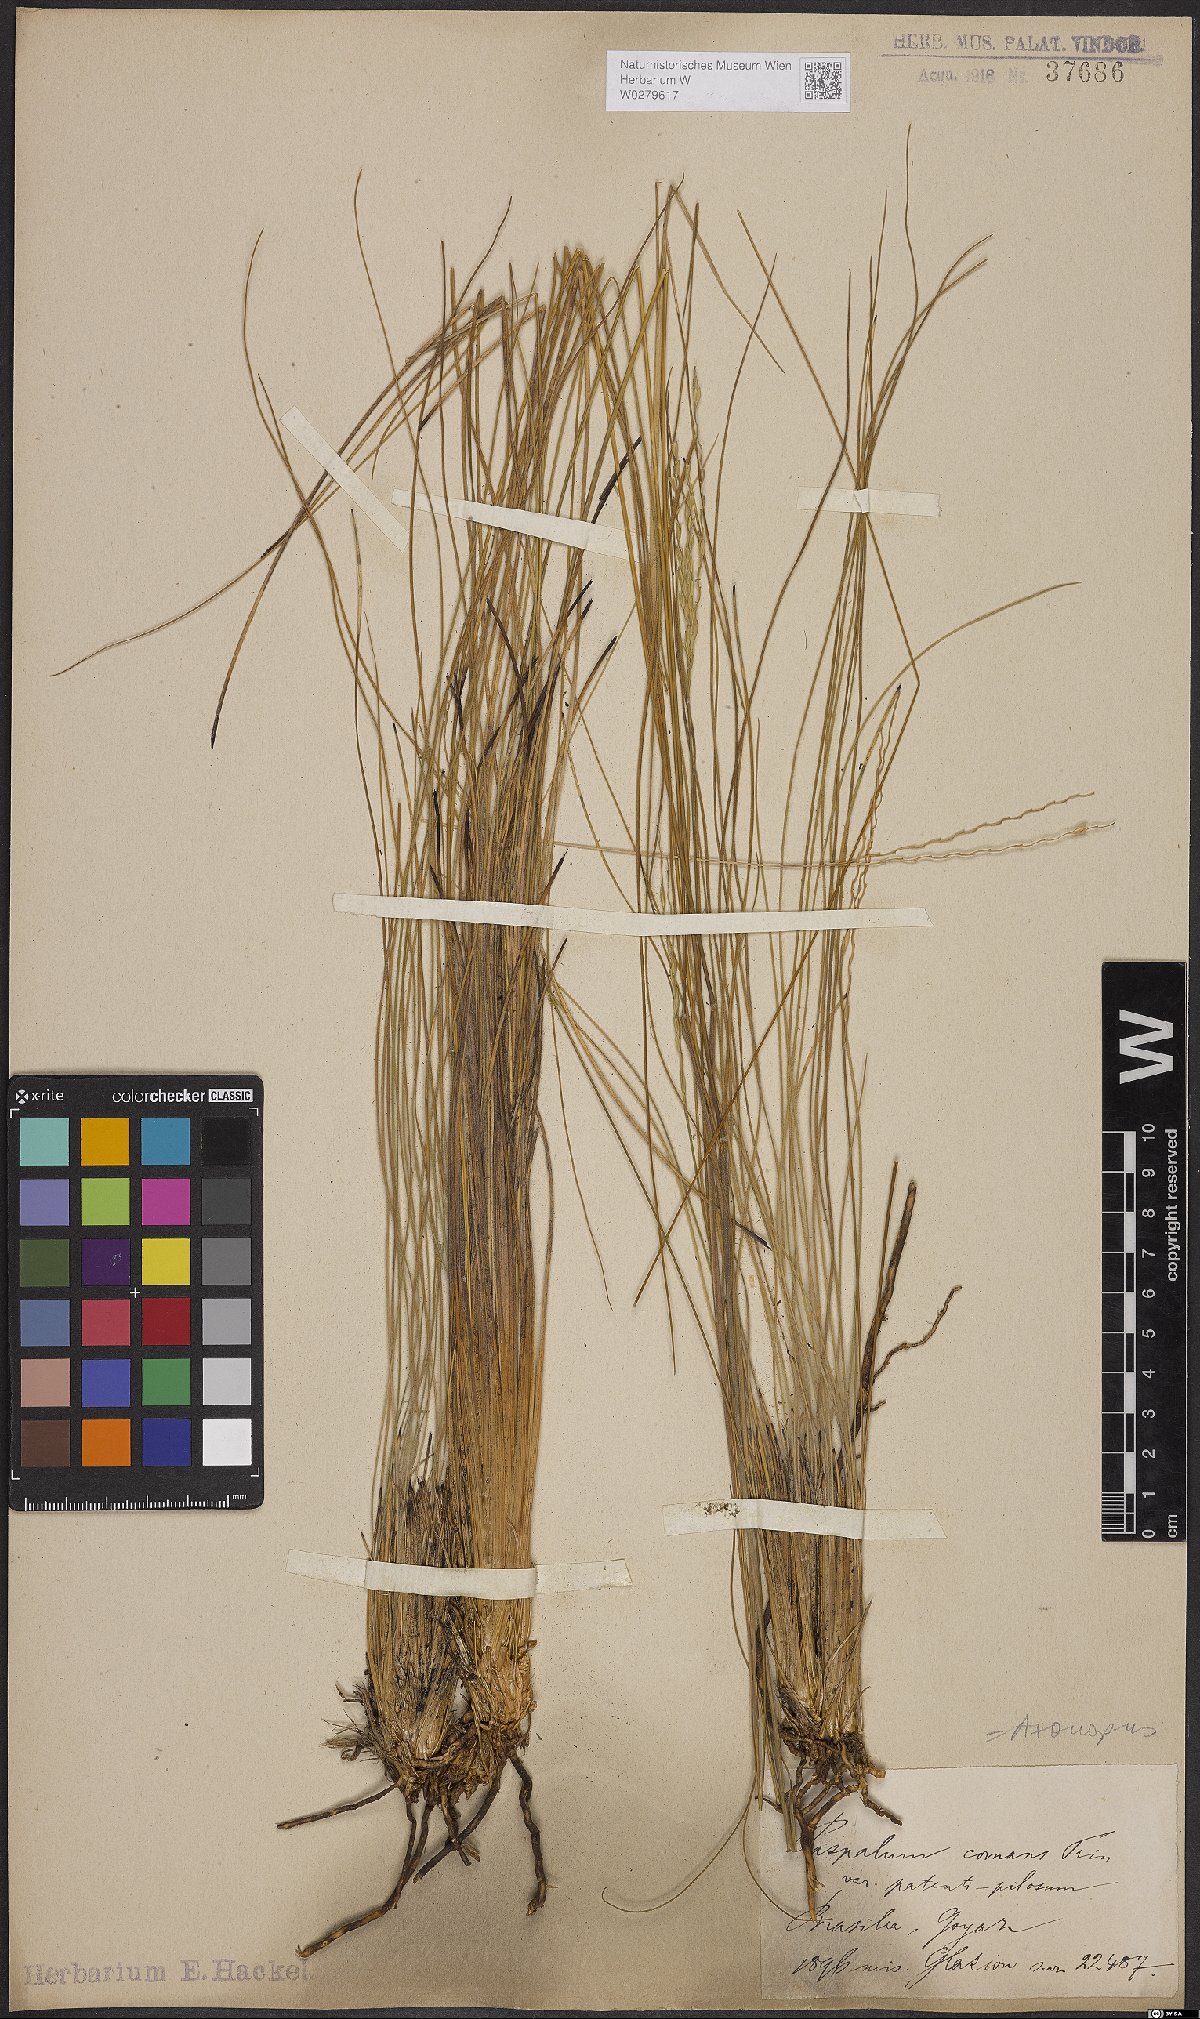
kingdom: Plantae
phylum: Tracheophyta
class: Liliopsida
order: Poales
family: Poaceae
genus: Axonopus
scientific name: Axonopus comans
